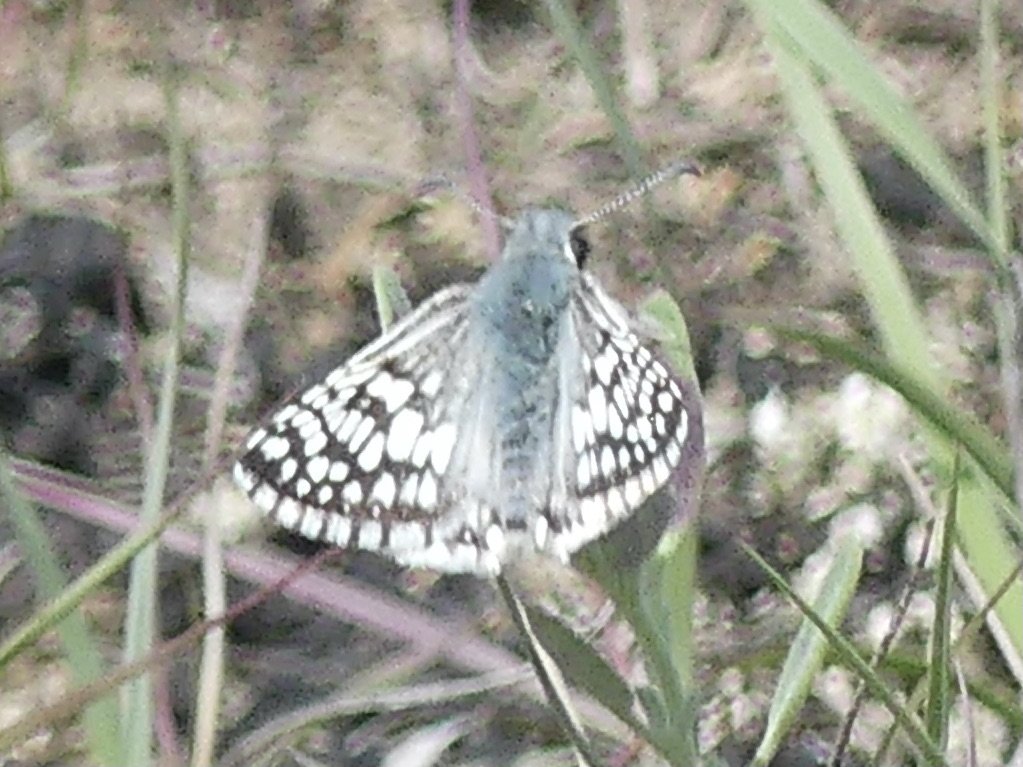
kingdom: Animalia
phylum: Arthropoda
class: Insecta
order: Lepidoptera
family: Hesperiidae
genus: Pyrgus
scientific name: Pyrgus communis
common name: Common Checkered-Skipper
